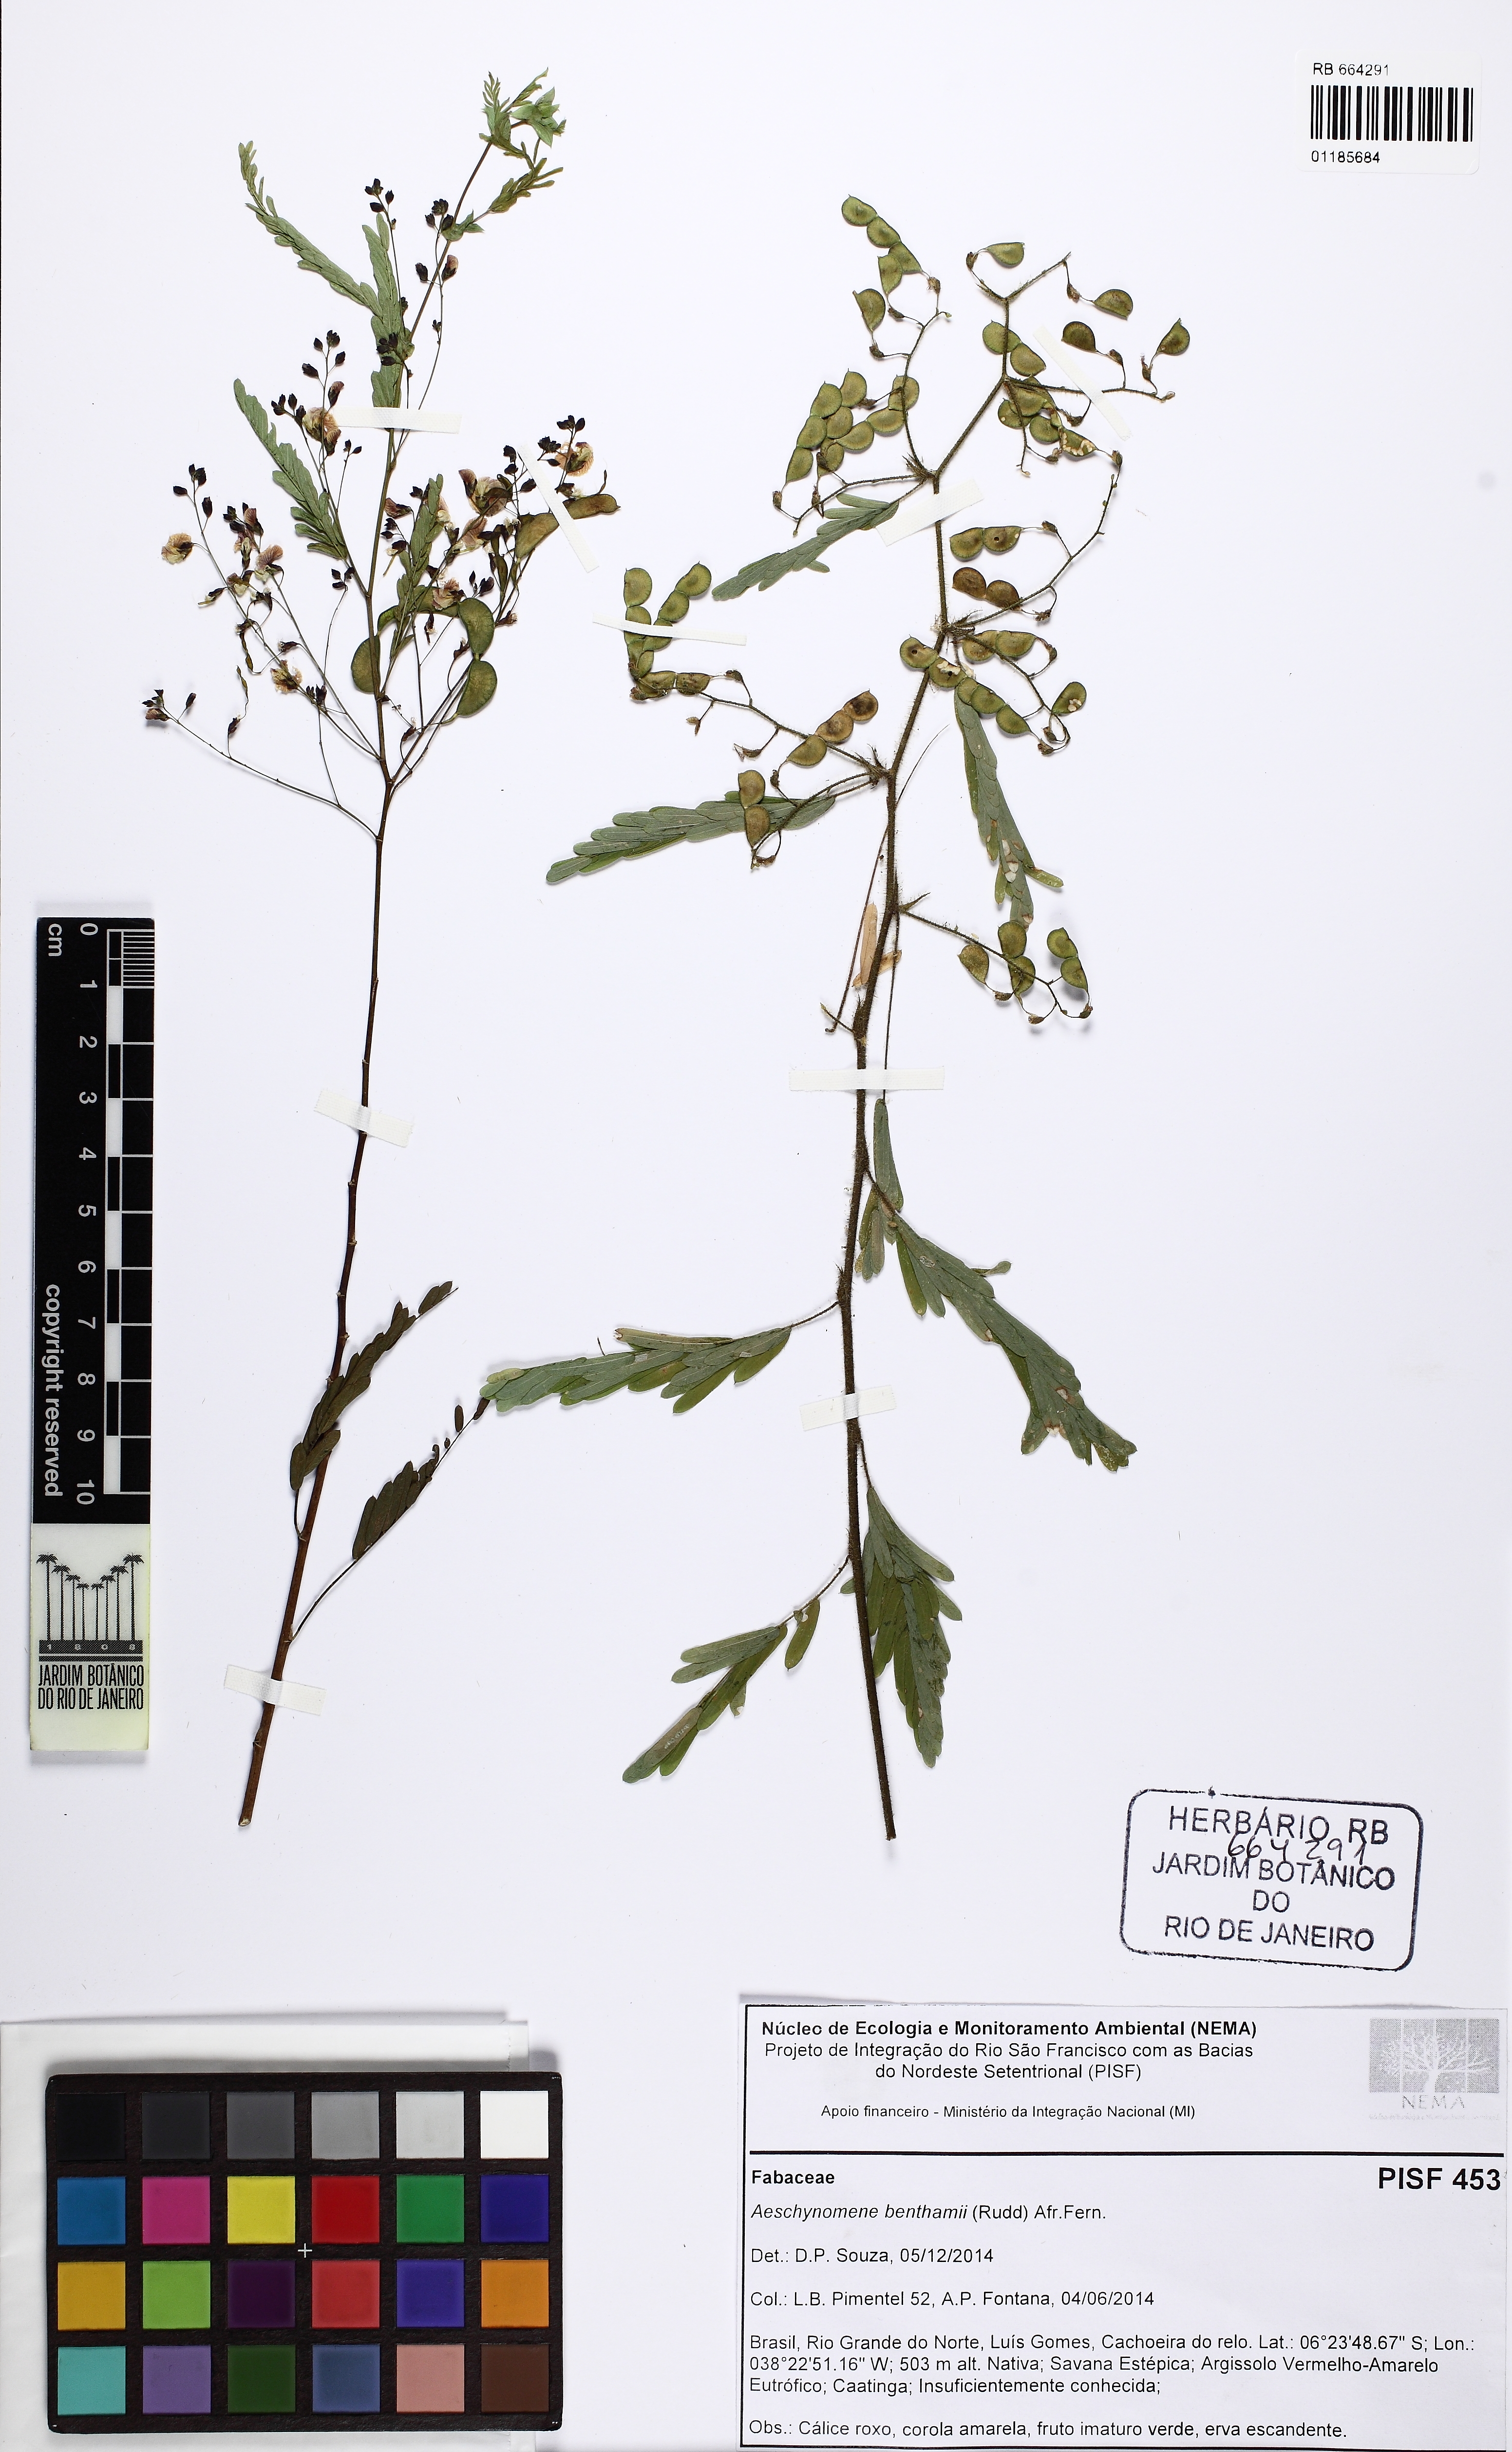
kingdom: Plantae
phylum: Tracheophyta
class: Magnoliopsida
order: Fabales
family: Fabaceae
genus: Ctenodon
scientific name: Ctenodon benthamii
